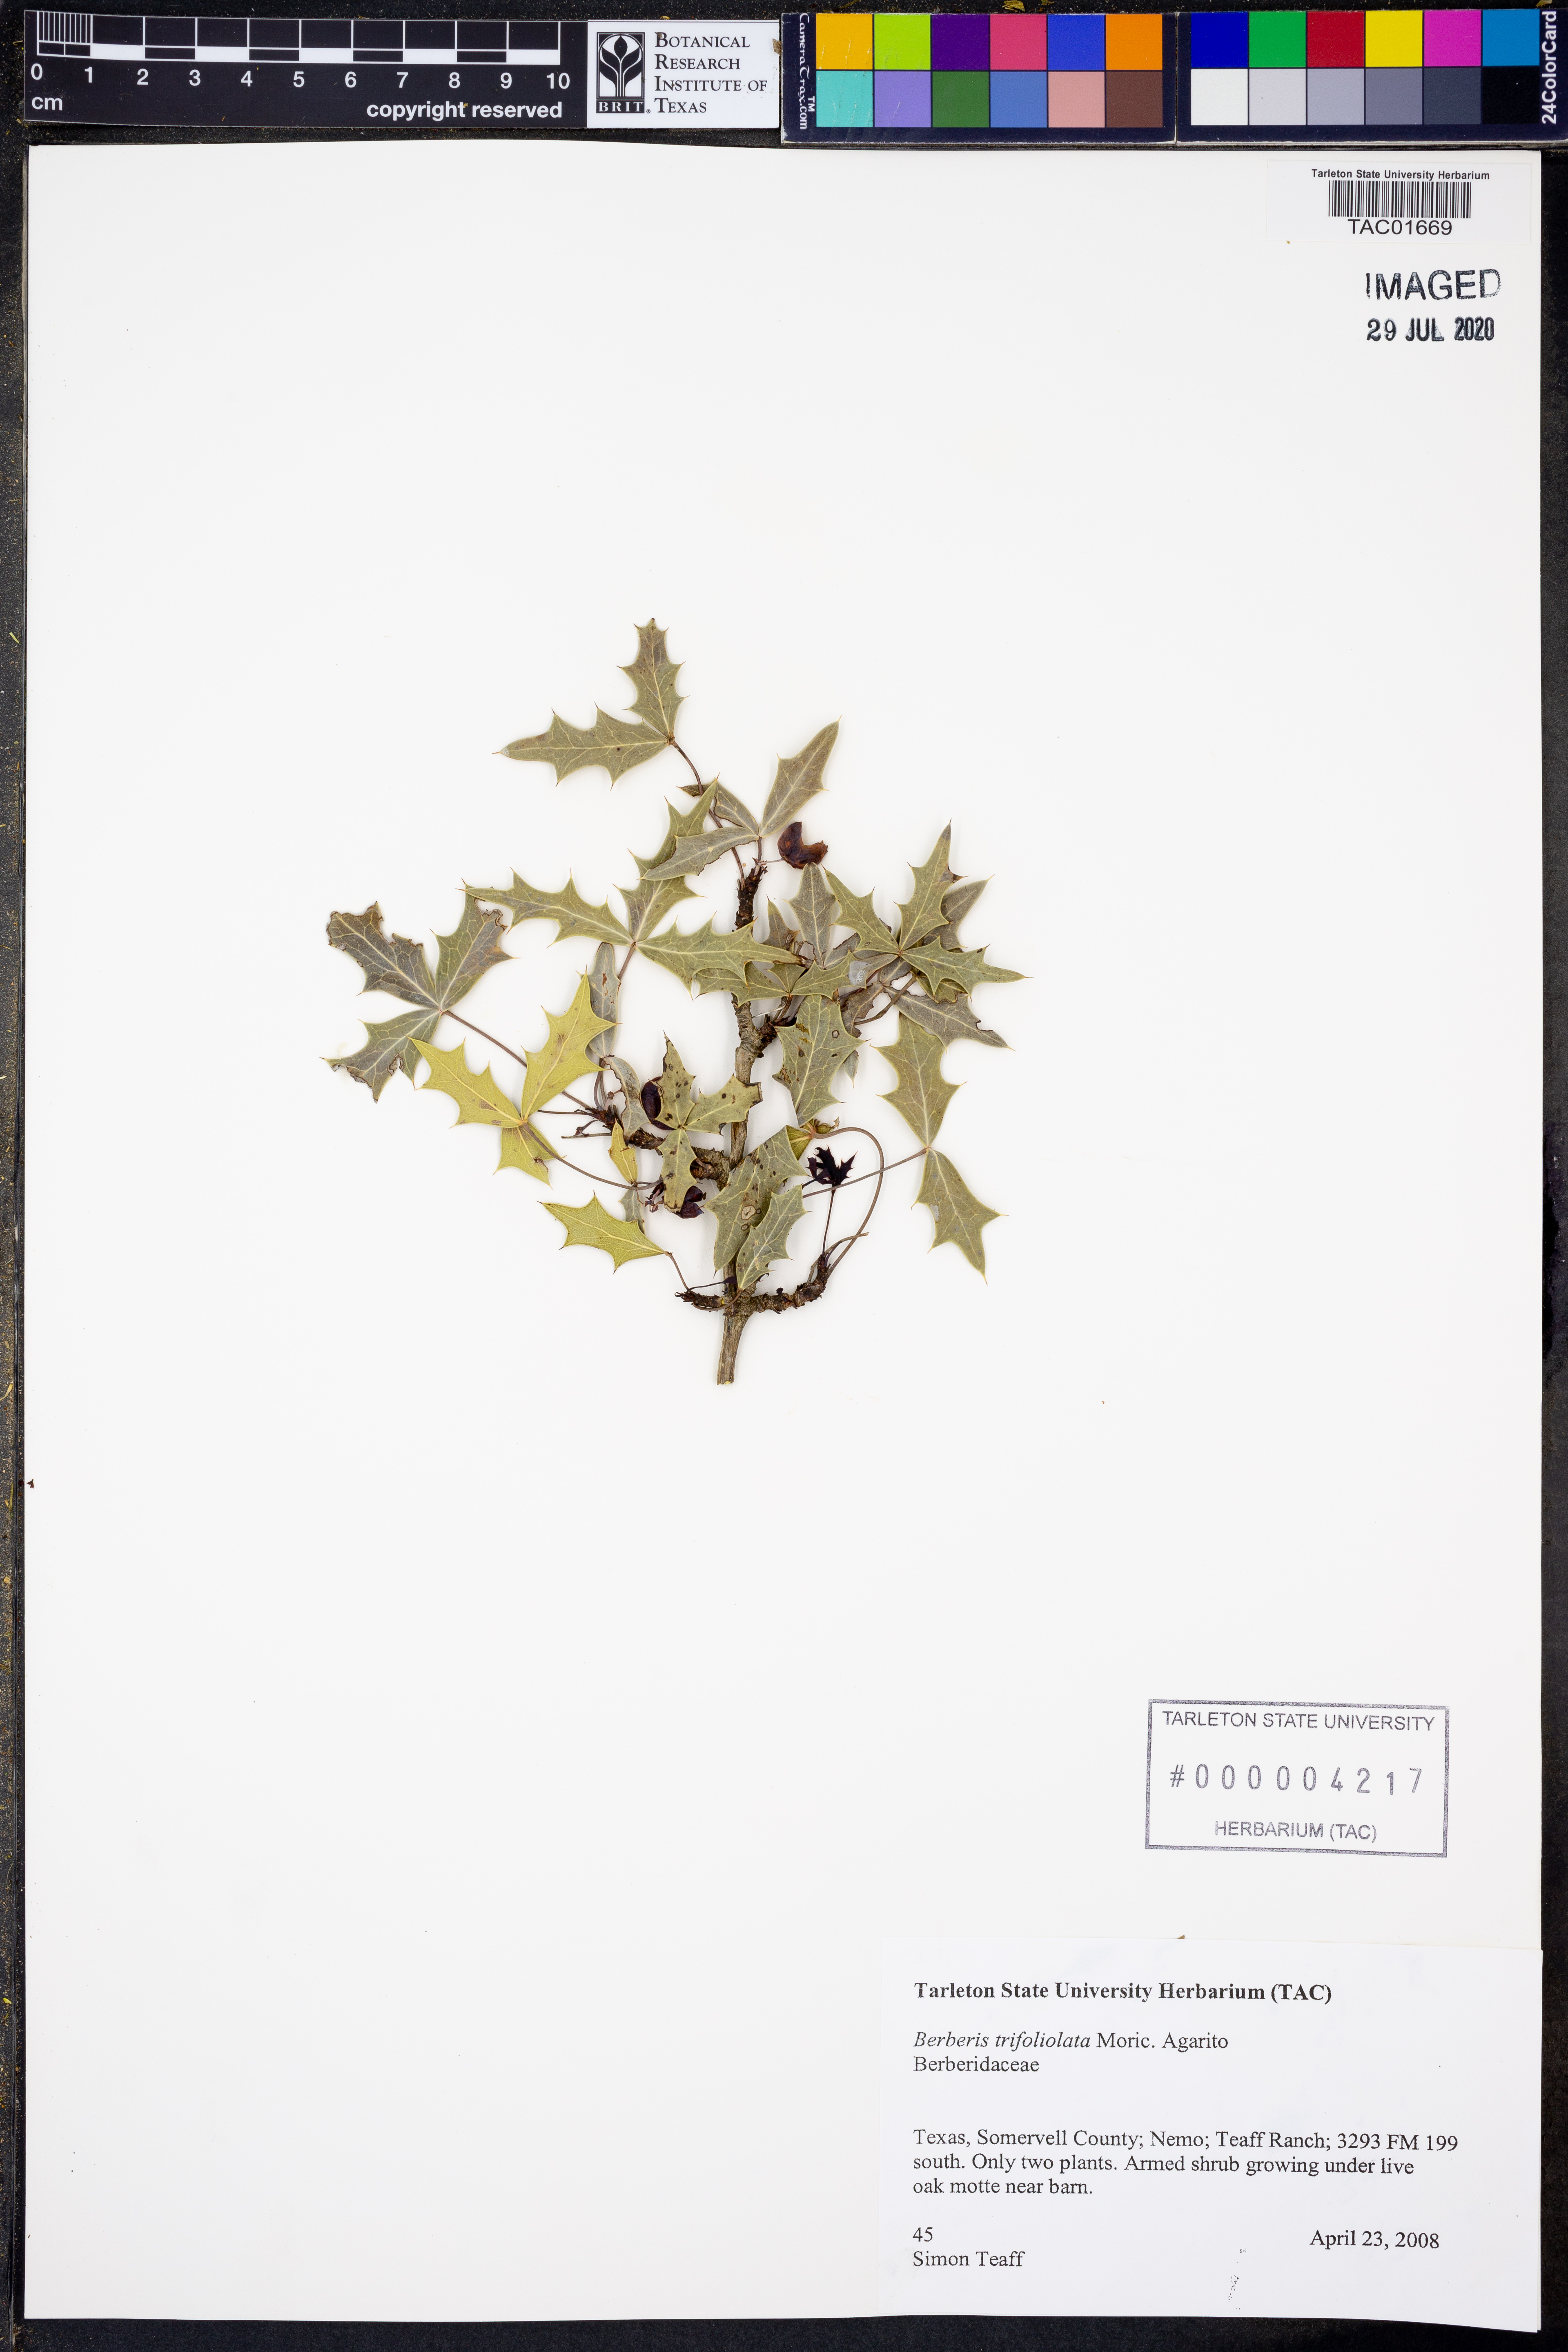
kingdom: Plantae
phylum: Tracheophyta
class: Magnoliopsida
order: Ranunculales
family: Berberidaceae
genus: Alloberberis
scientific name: Alloberberis trifoliolata
